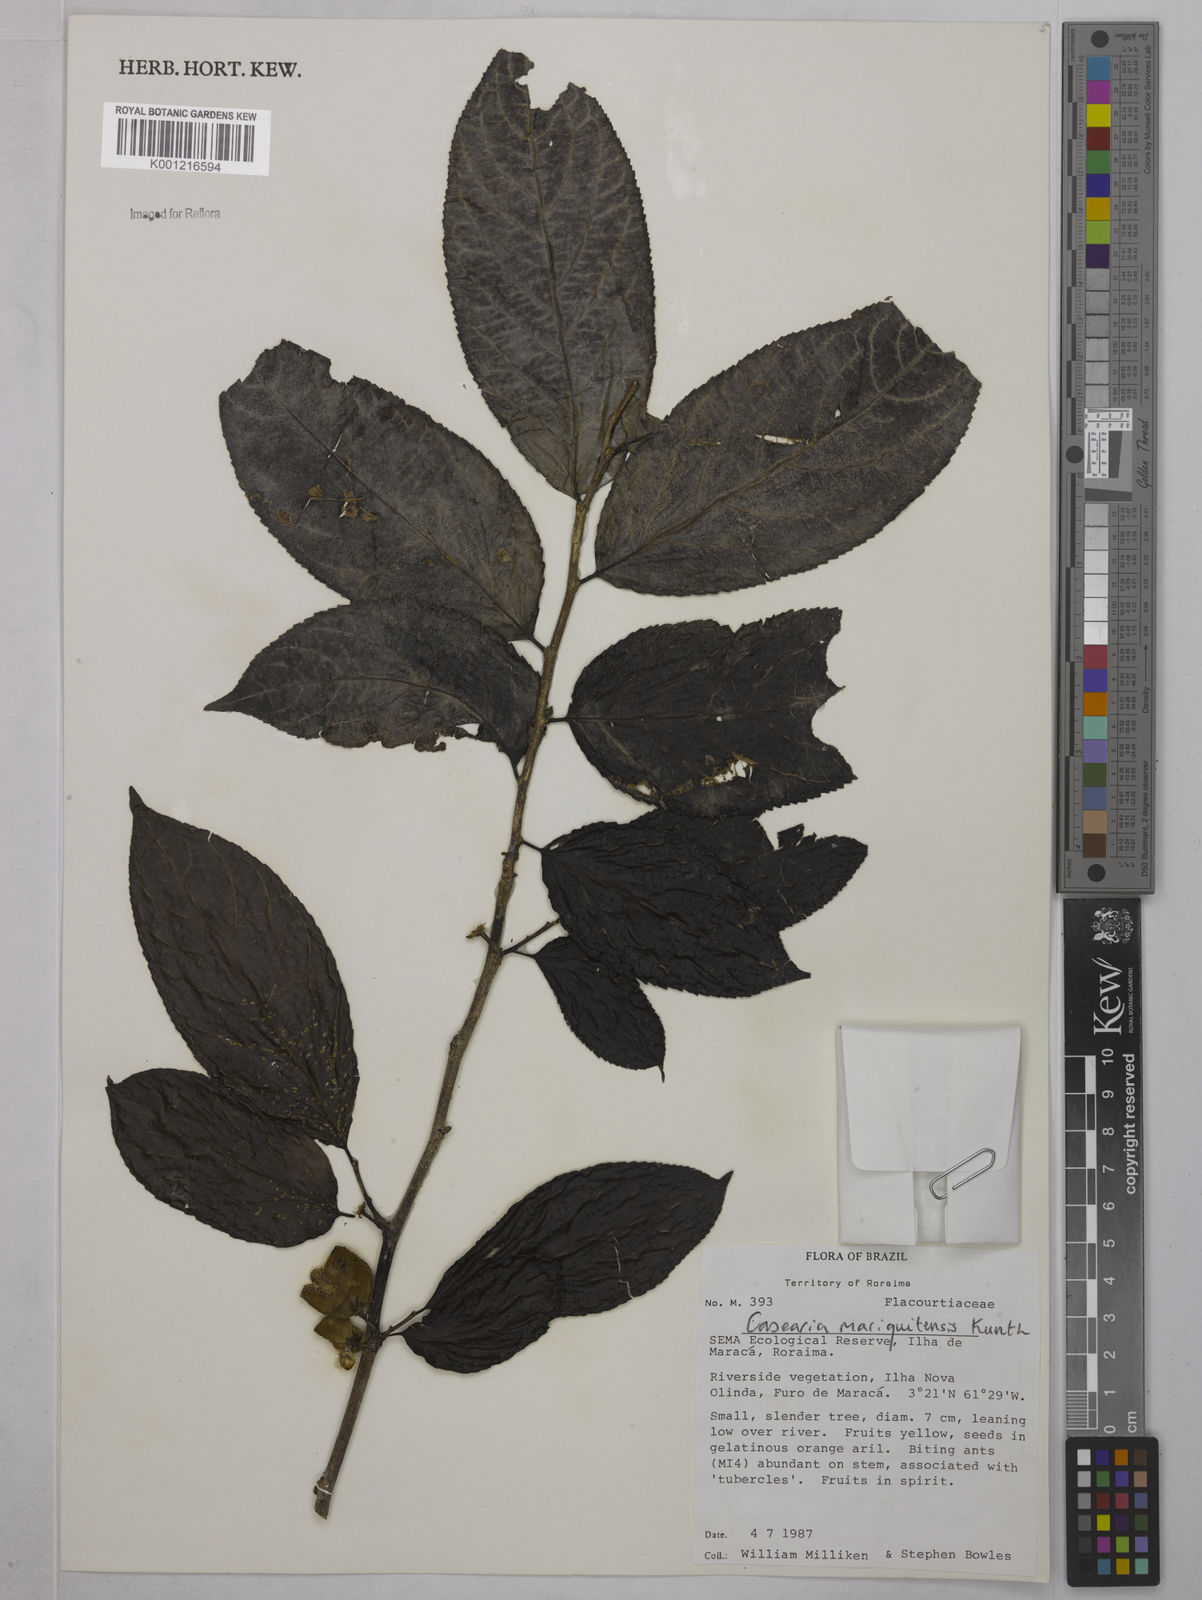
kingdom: Plantae
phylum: Tracheophyta
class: Magnoliopsida
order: Malpighiales
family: Salicaceae
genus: Casearia
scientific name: Casearia mariquitensis
